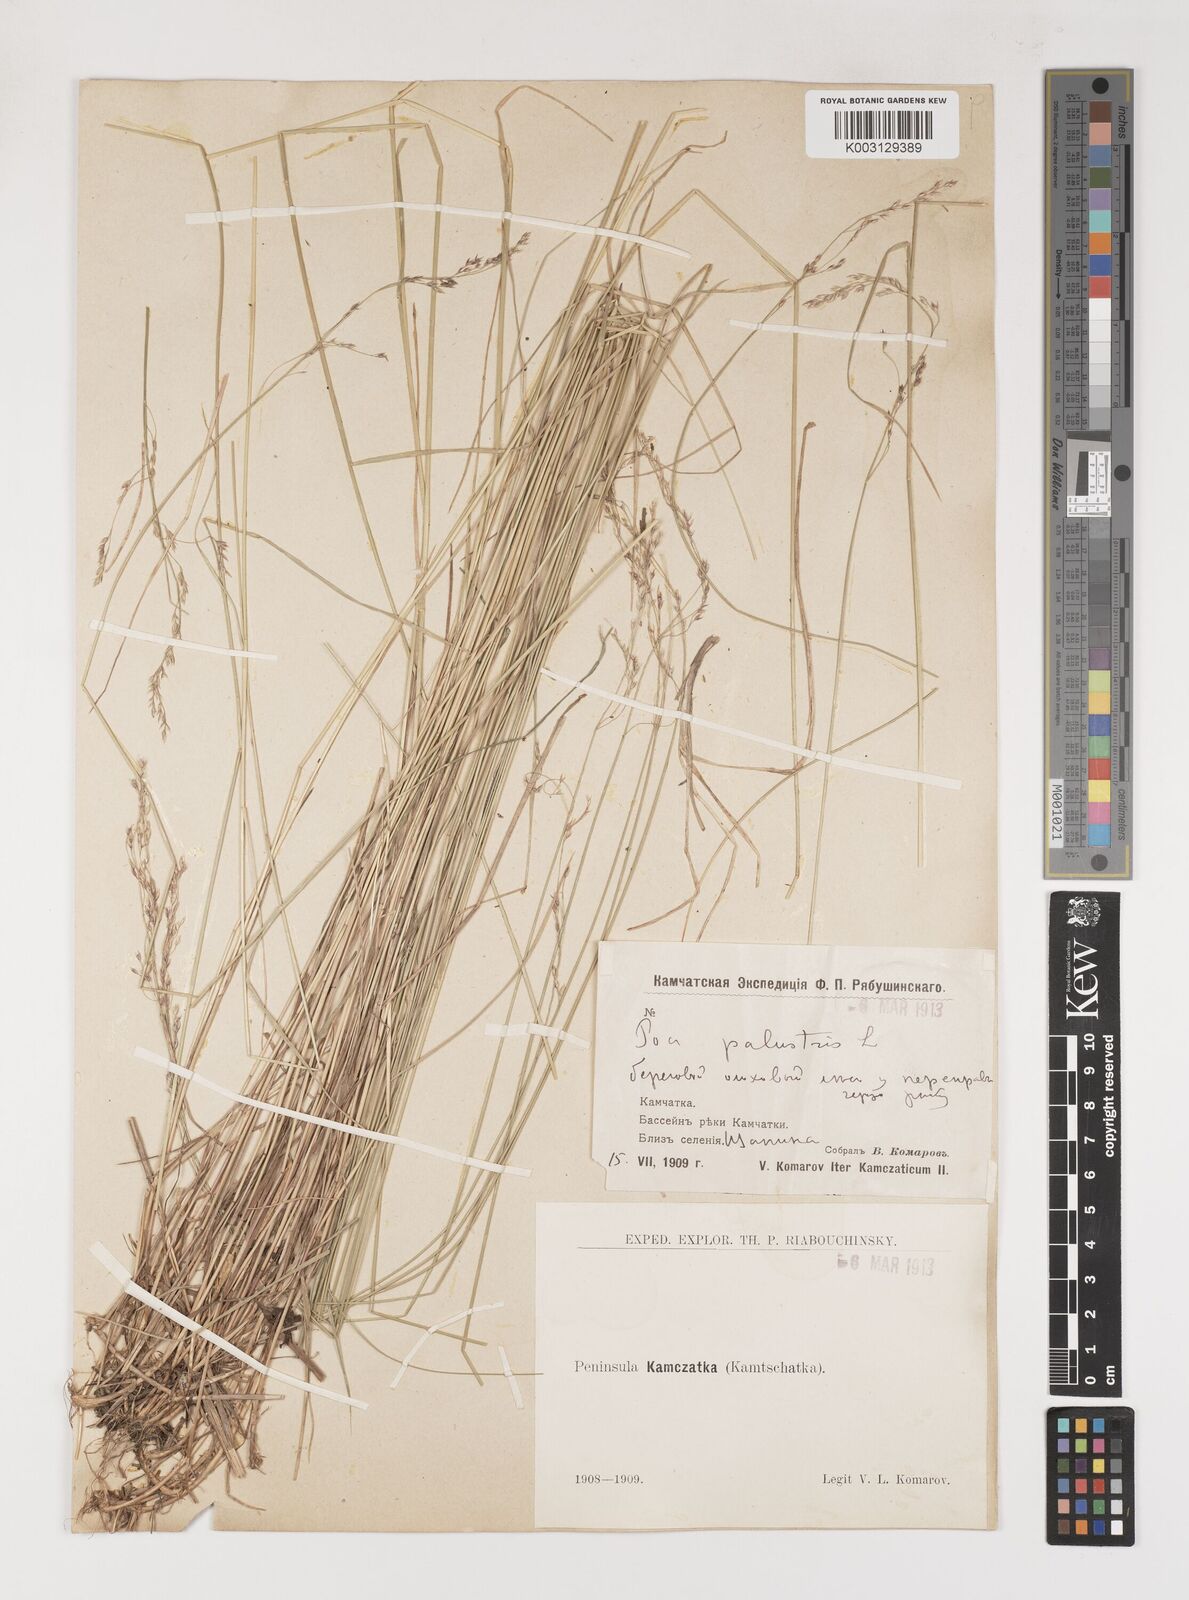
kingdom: Plantae
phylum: Tracheophyta
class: Liliopsida
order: Poales
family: Poaceae
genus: Poa
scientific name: Poa palustris
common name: Swamp meadow-grass
